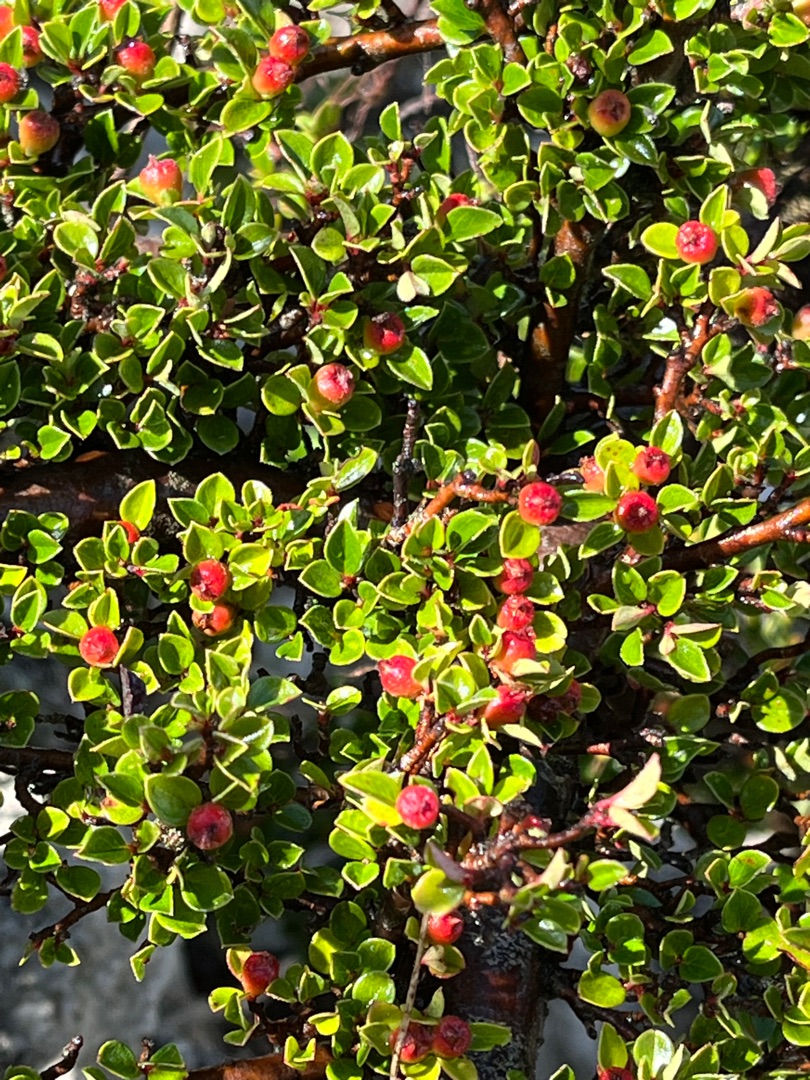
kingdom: Plantae
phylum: Tracheophyta
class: Magnoliopsida
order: Rosales
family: Rosaceae
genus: Cotoneaster
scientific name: Cotoneaster horizontalis
